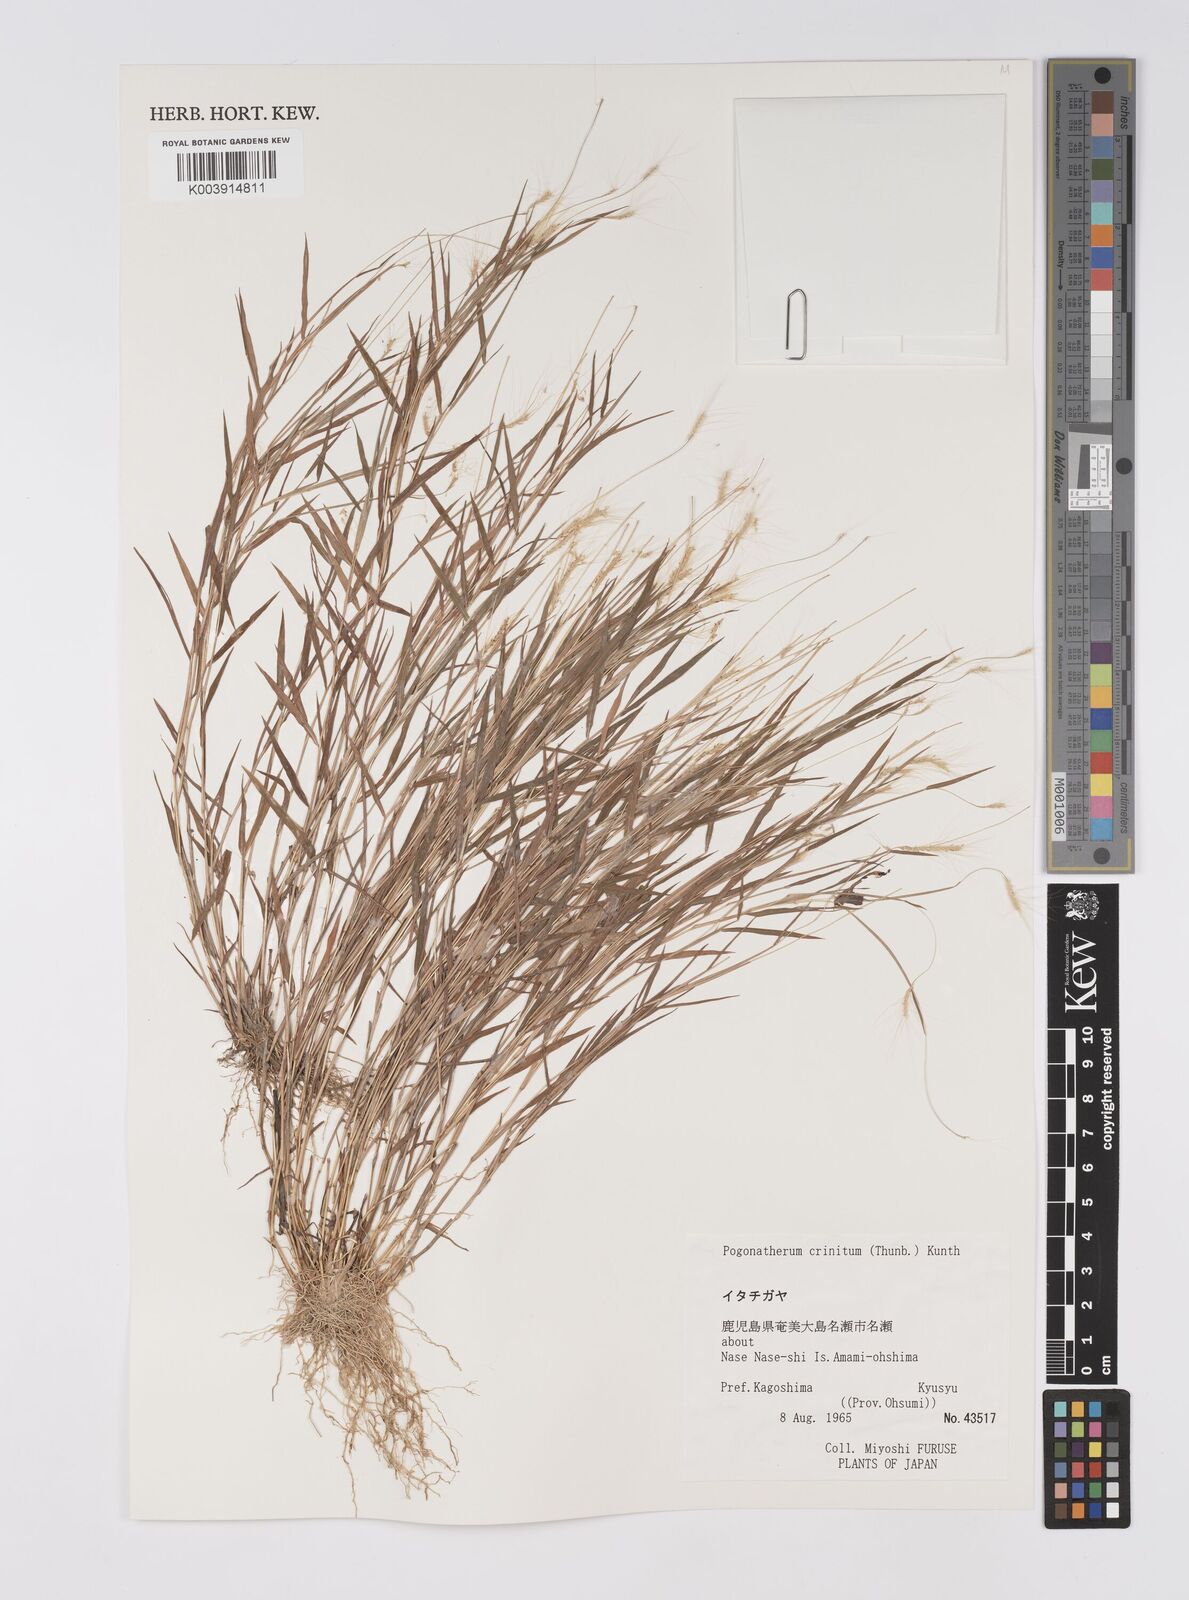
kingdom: Plantae
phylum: Tracheophyta
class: Liliopsida
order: Poales
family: Poaceae
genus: Pogonatherum
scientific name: Pogonatherum crinitum
